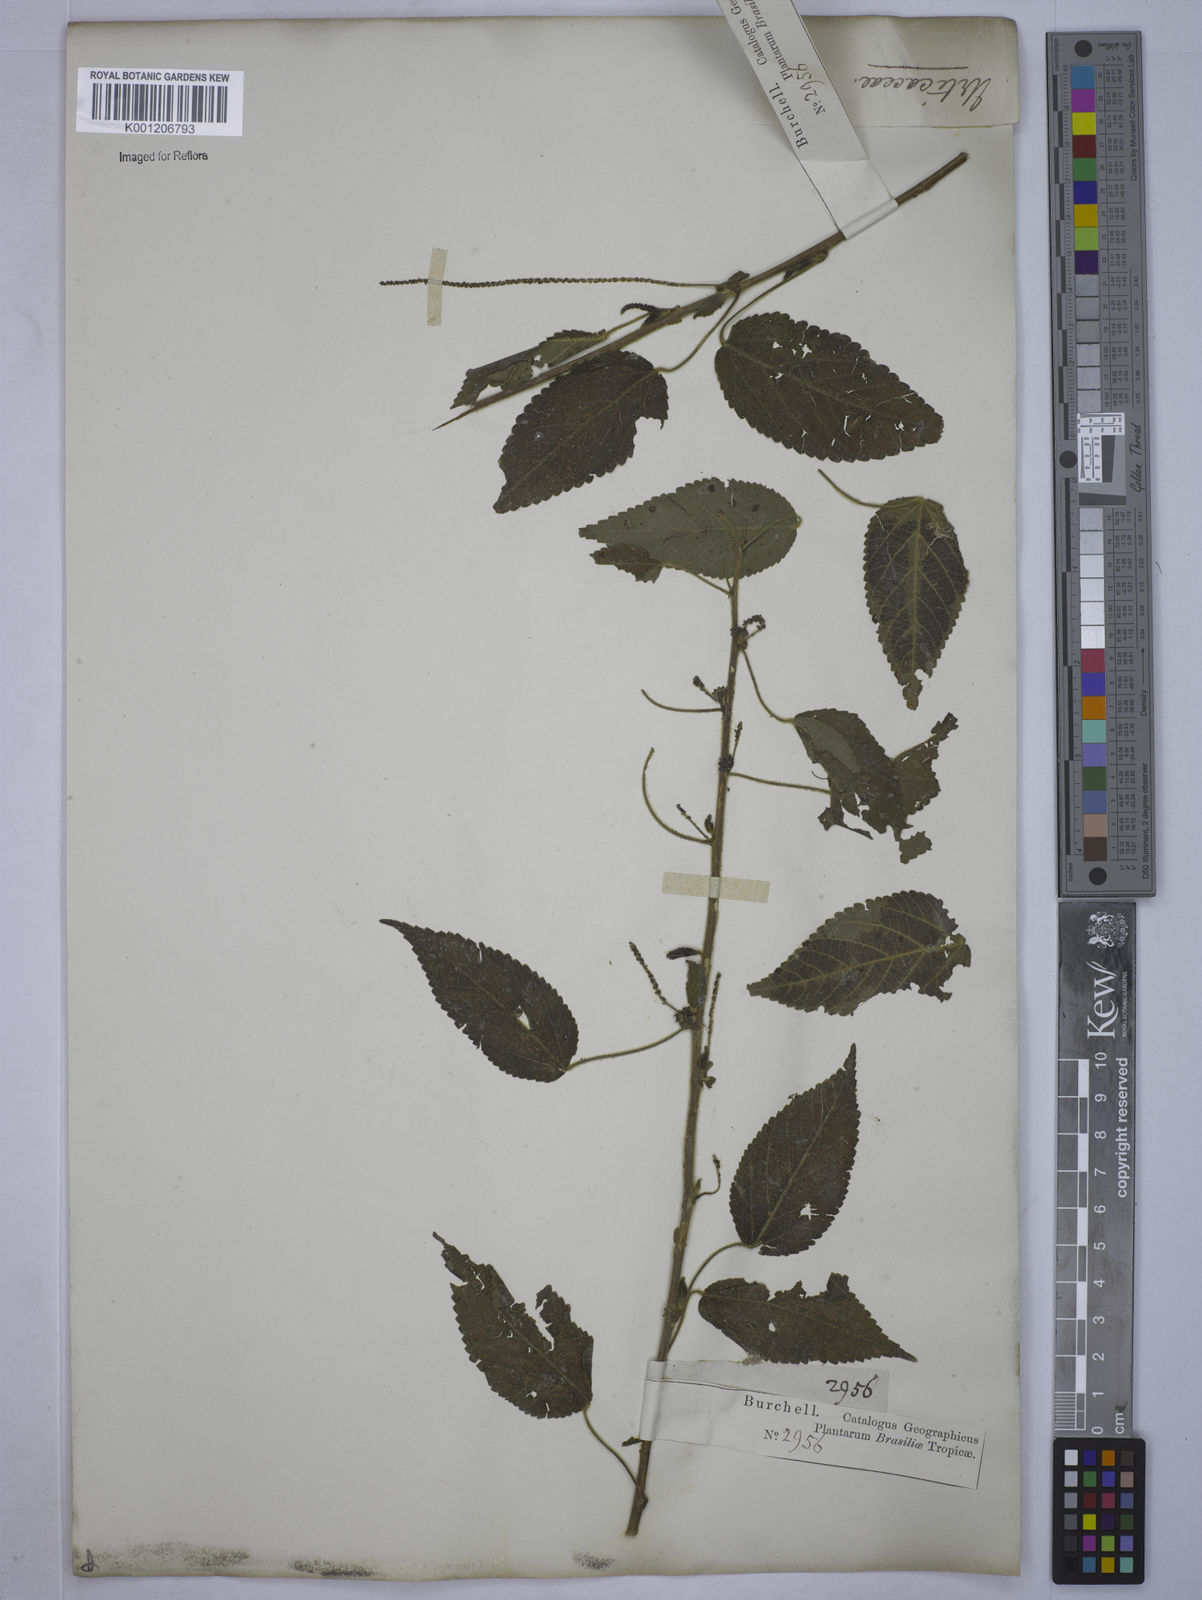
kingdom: Plantae
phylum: Tracheophyta
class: Magnoliopsida
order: Malpighiales
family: Euphorbiaceae
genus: Acalypha
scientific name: Acalypha
